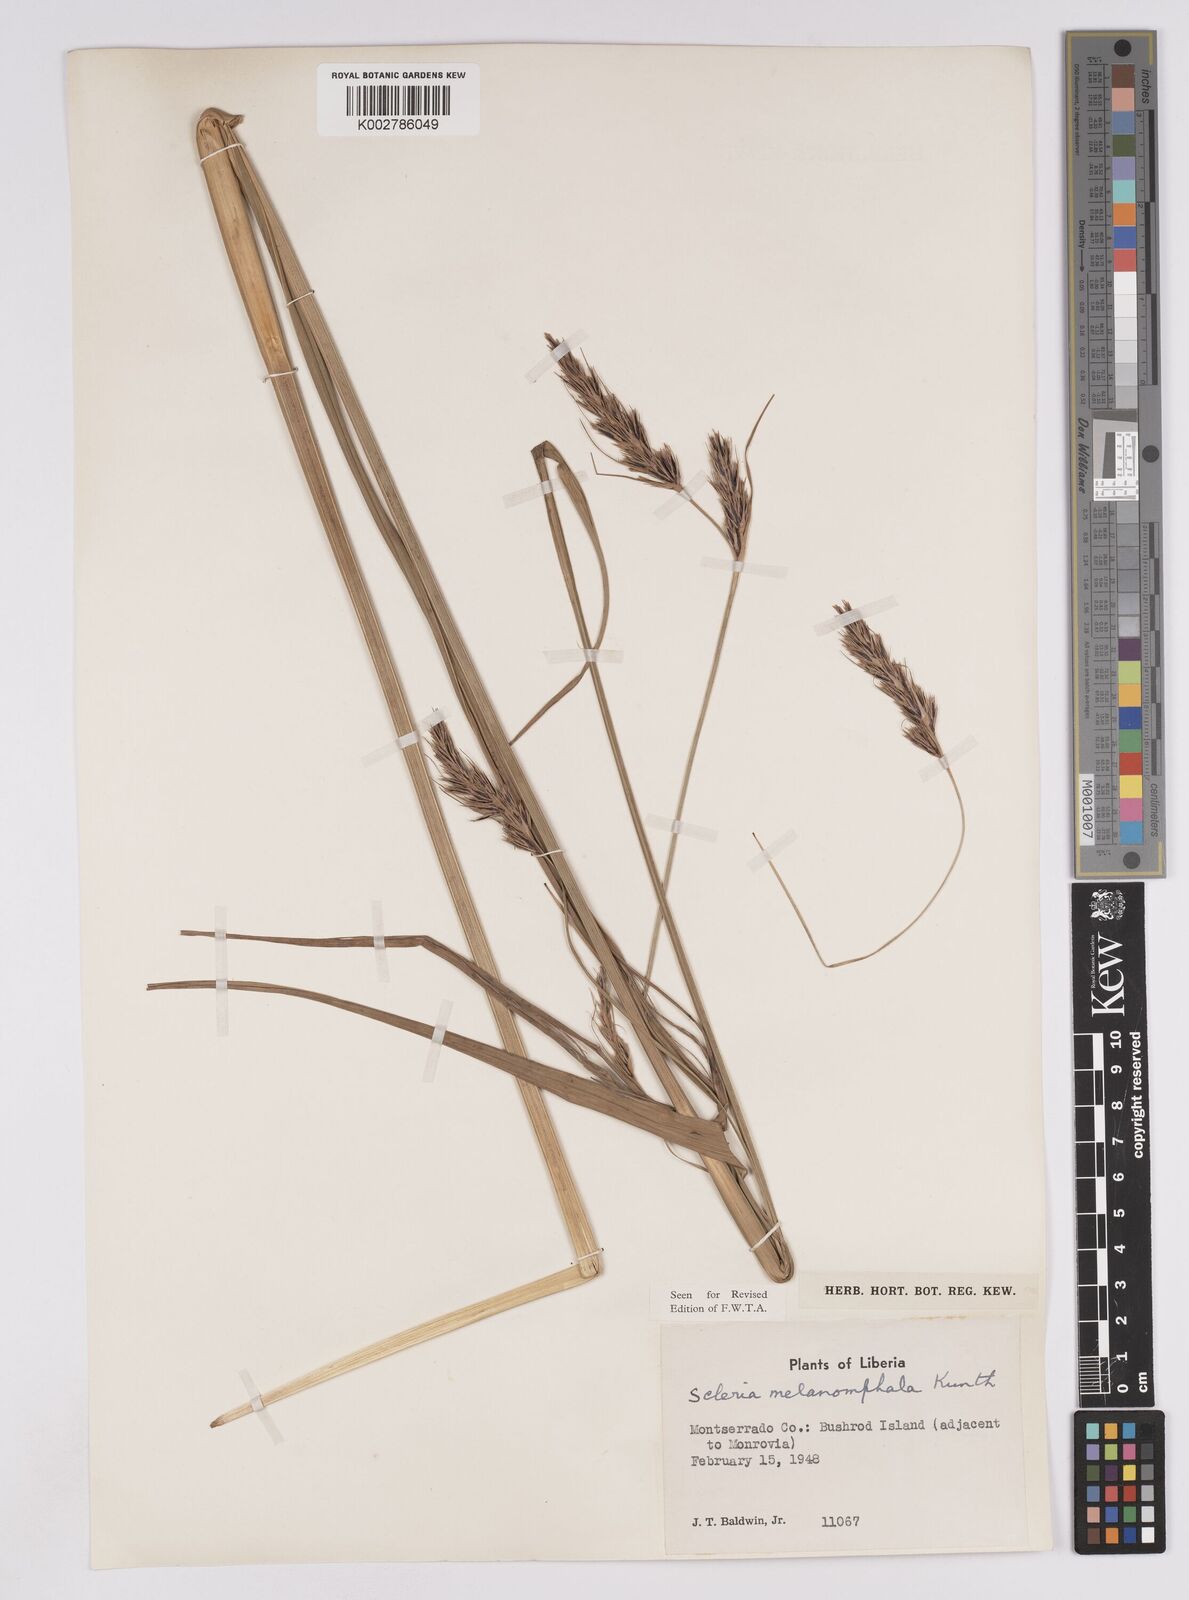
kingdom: Plantae
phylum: Tracheophyta
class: Liliopsida
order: Poales
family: Cyperaceae
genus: Scleria
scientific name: Scleria melanomphala
